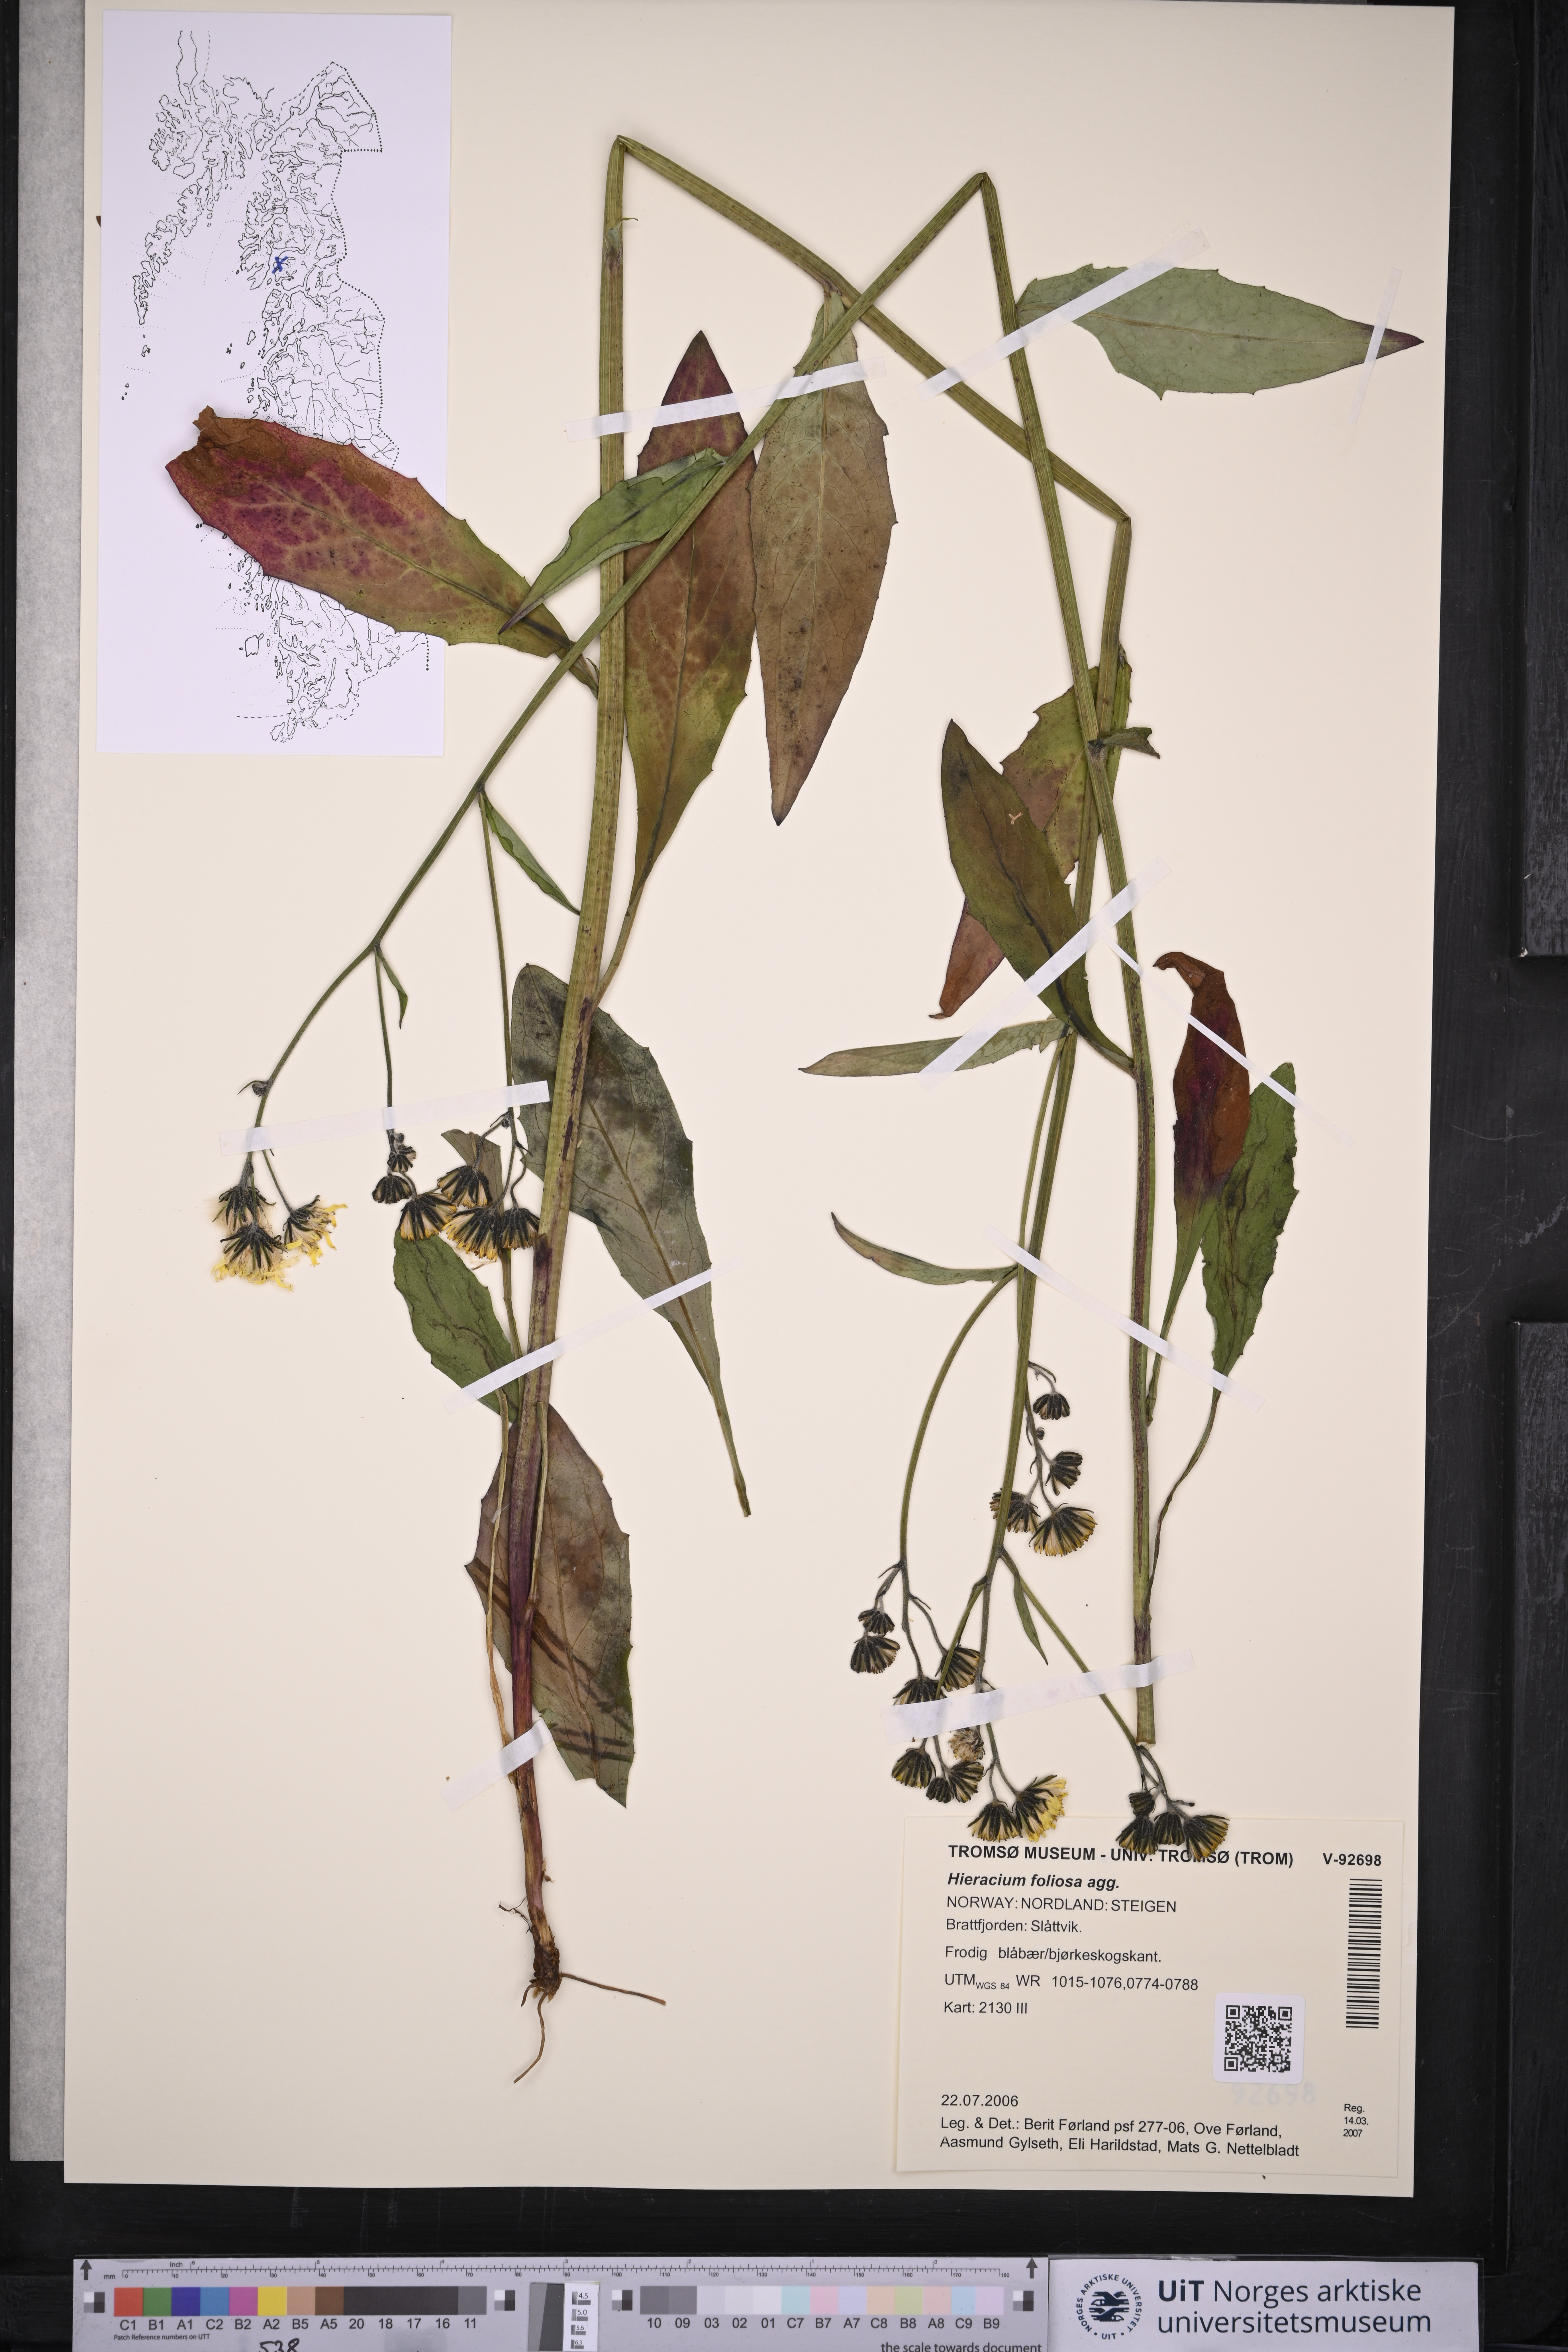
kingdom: Plantae
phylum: Tracheophyta
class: Magnoliopsida
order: Asterales
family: Asteraceae
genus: Hieracium
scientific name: Hieracium
